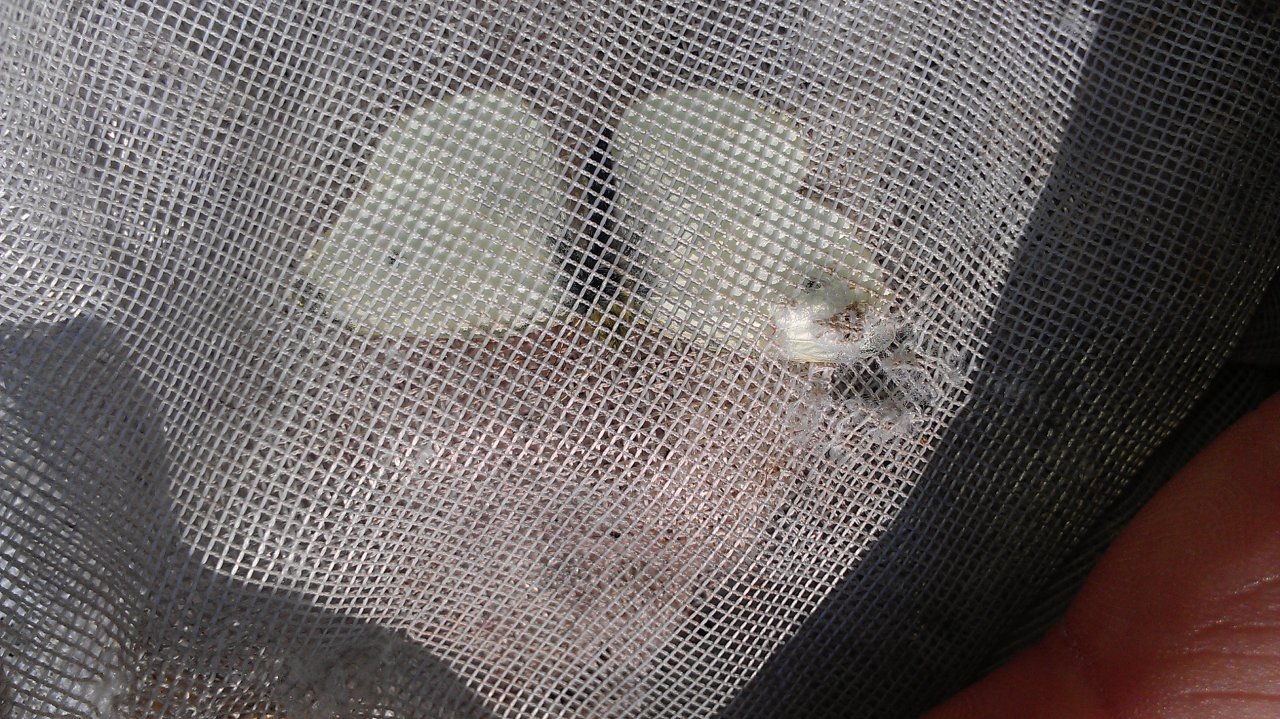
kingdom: Animalia
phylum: Arthropoda
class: Insecta
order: Lepidoptera
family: Pieridae
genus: Pieris
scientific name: Pieris rapae
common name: Cabbage White
